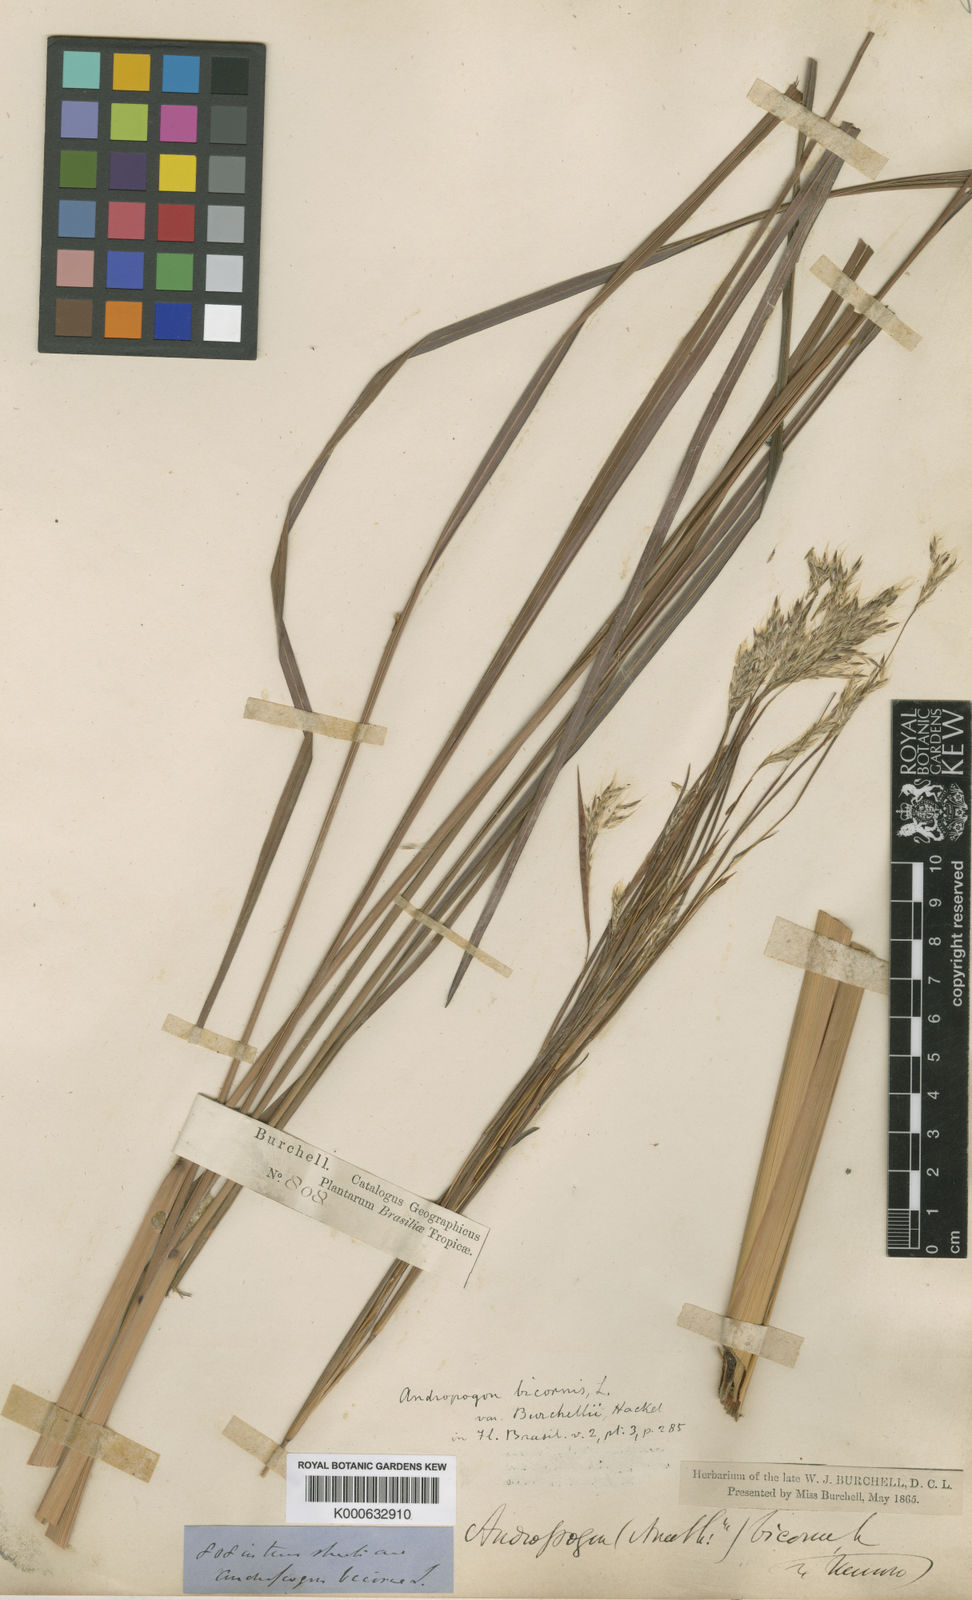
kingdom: Plantae
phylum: Tracheophyta
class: Liliopsida
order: Poales
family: Poaceae
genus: Andropogon
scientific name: Andropogon bicornis
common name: West indian foxtail grass
